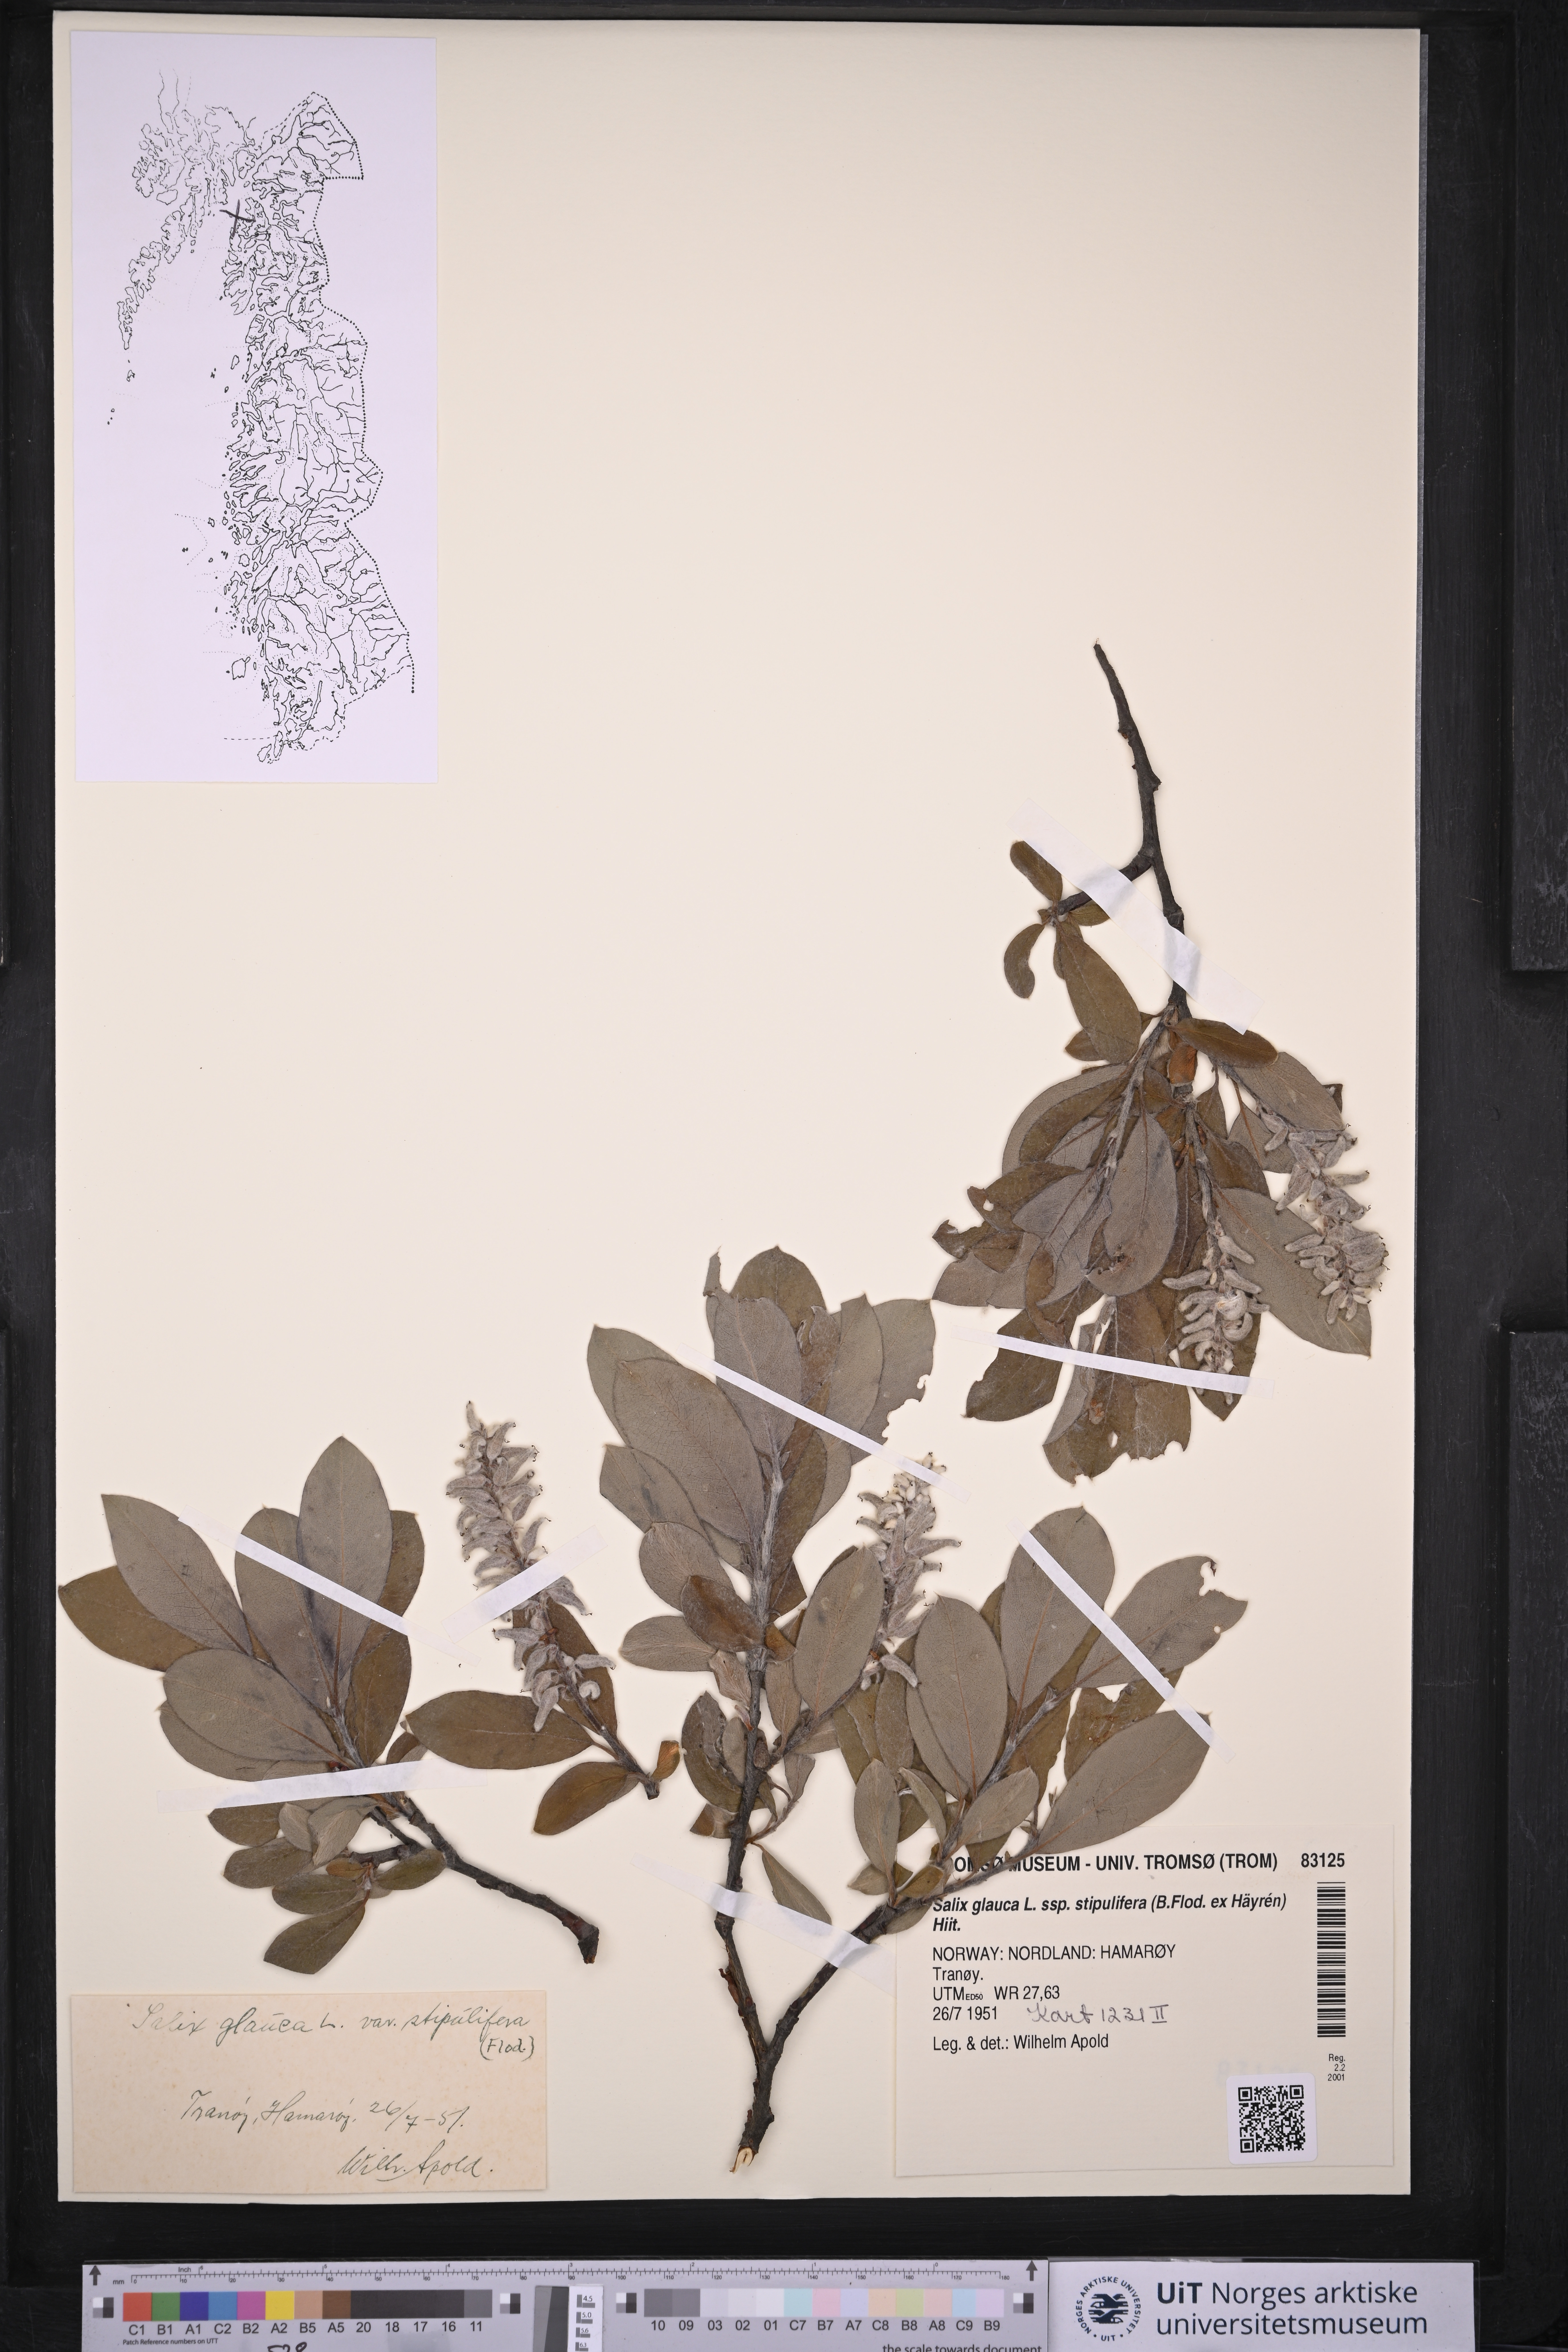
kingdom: Plantae
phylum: Tracheophyta
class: Magnoliopsida
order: Malpighiales
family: Salicaceae
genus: Salix
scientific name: Salix glauca
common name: Glaucous willow
